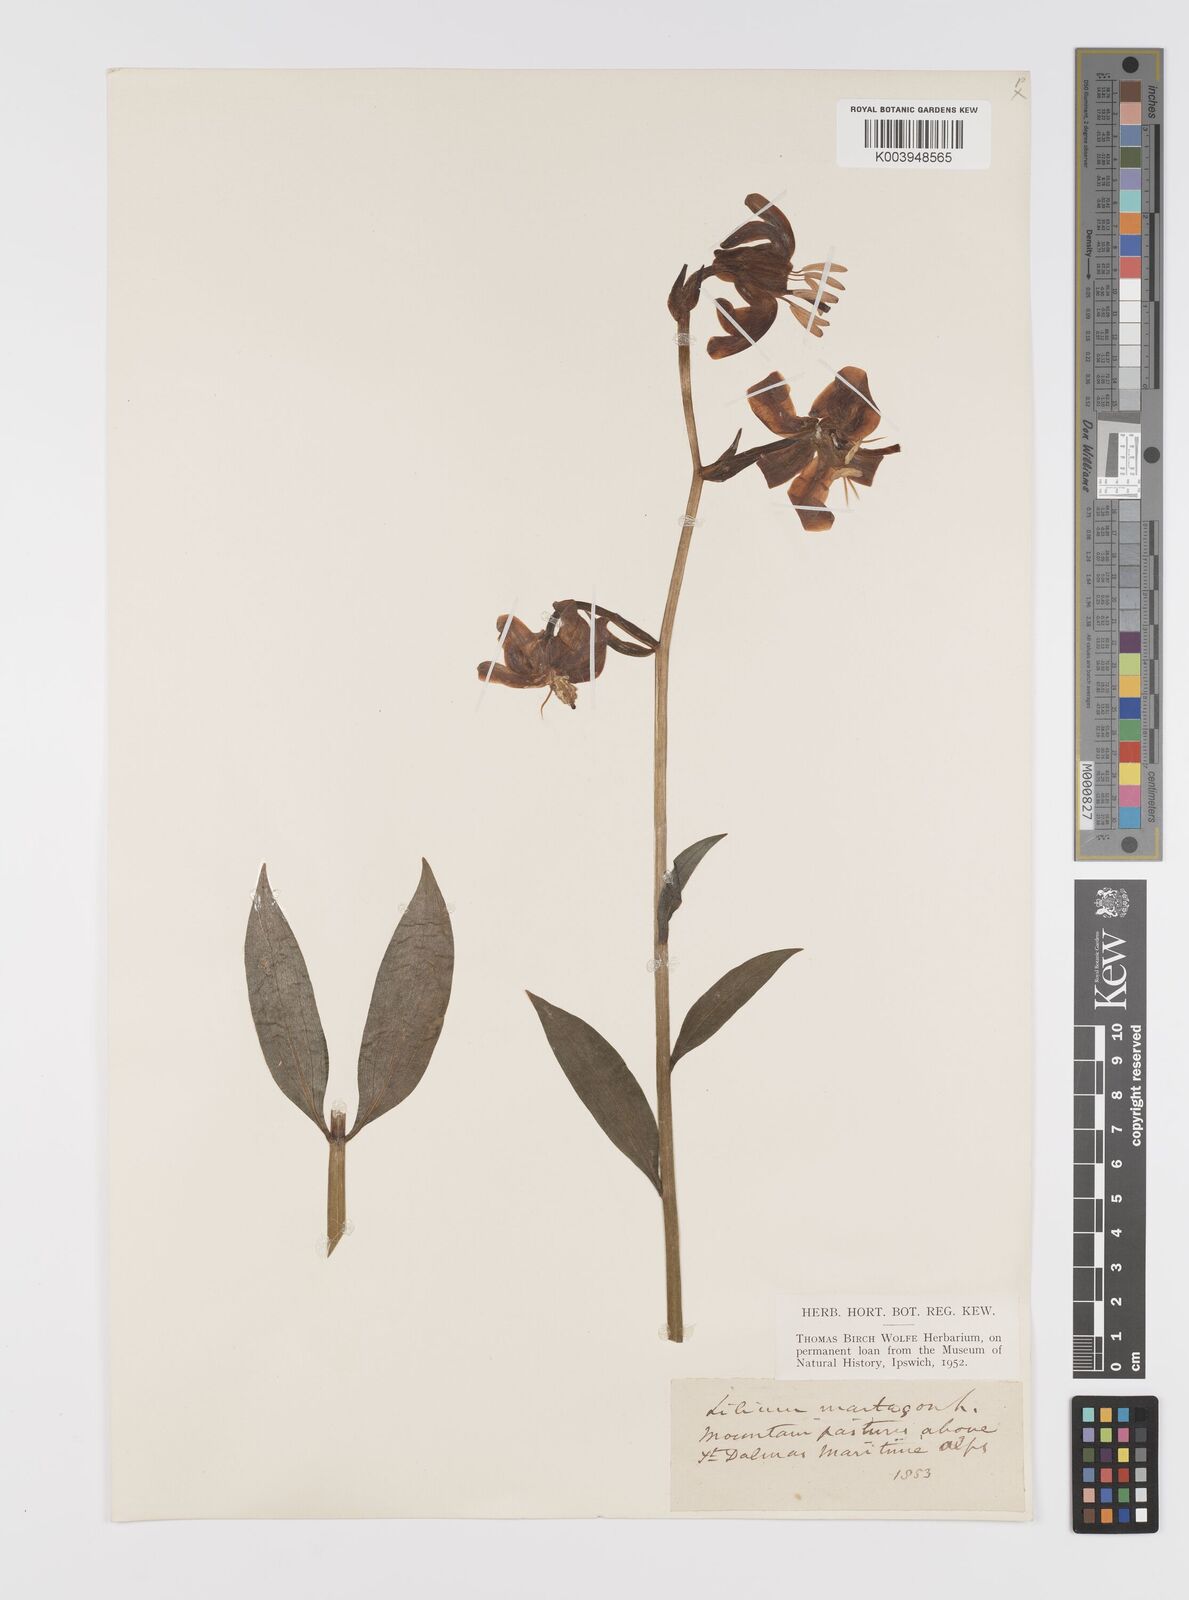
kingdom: Plantae
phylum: Tracheophyta
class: Liliopsida
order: Liliales
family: Liliaceae
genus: Lilium
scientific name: Lilium martagon
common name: Martagon lily
